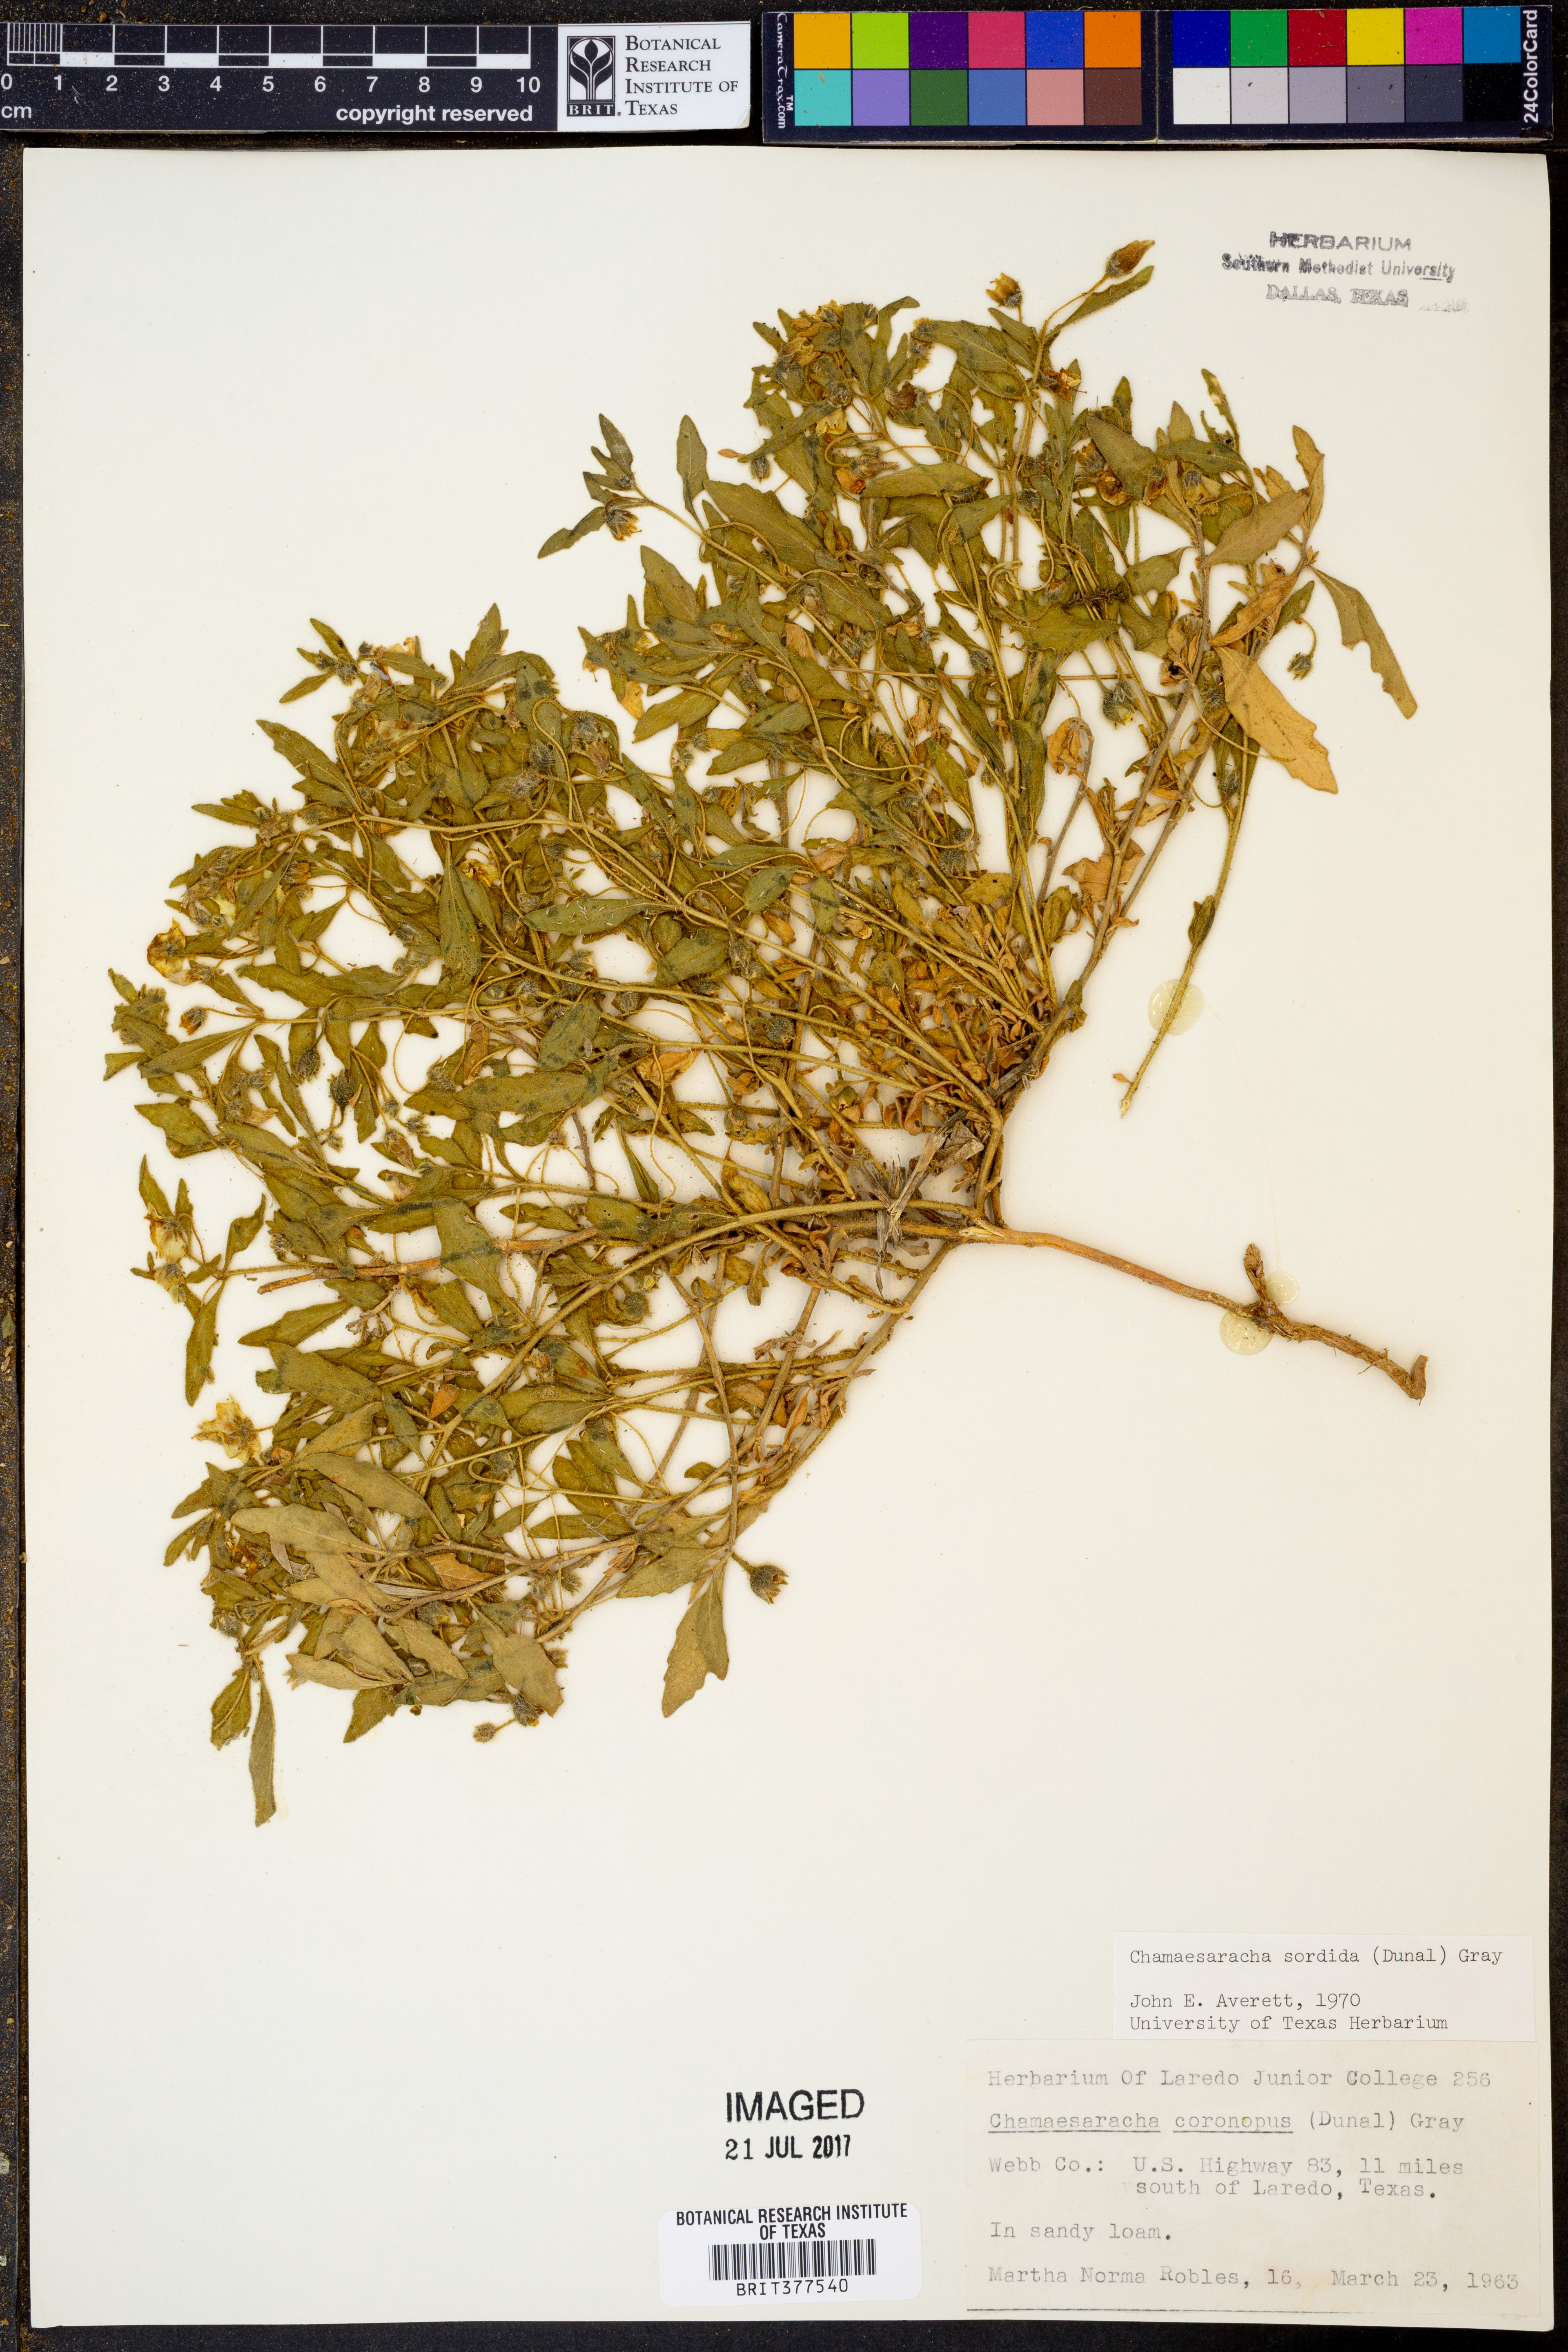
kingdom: Plantae
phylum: Tracheophyta
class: Magnoliopsida
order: Solanales
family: Solanaceae
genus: Chamaesaracha
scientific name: Chamaesaracha sordida
